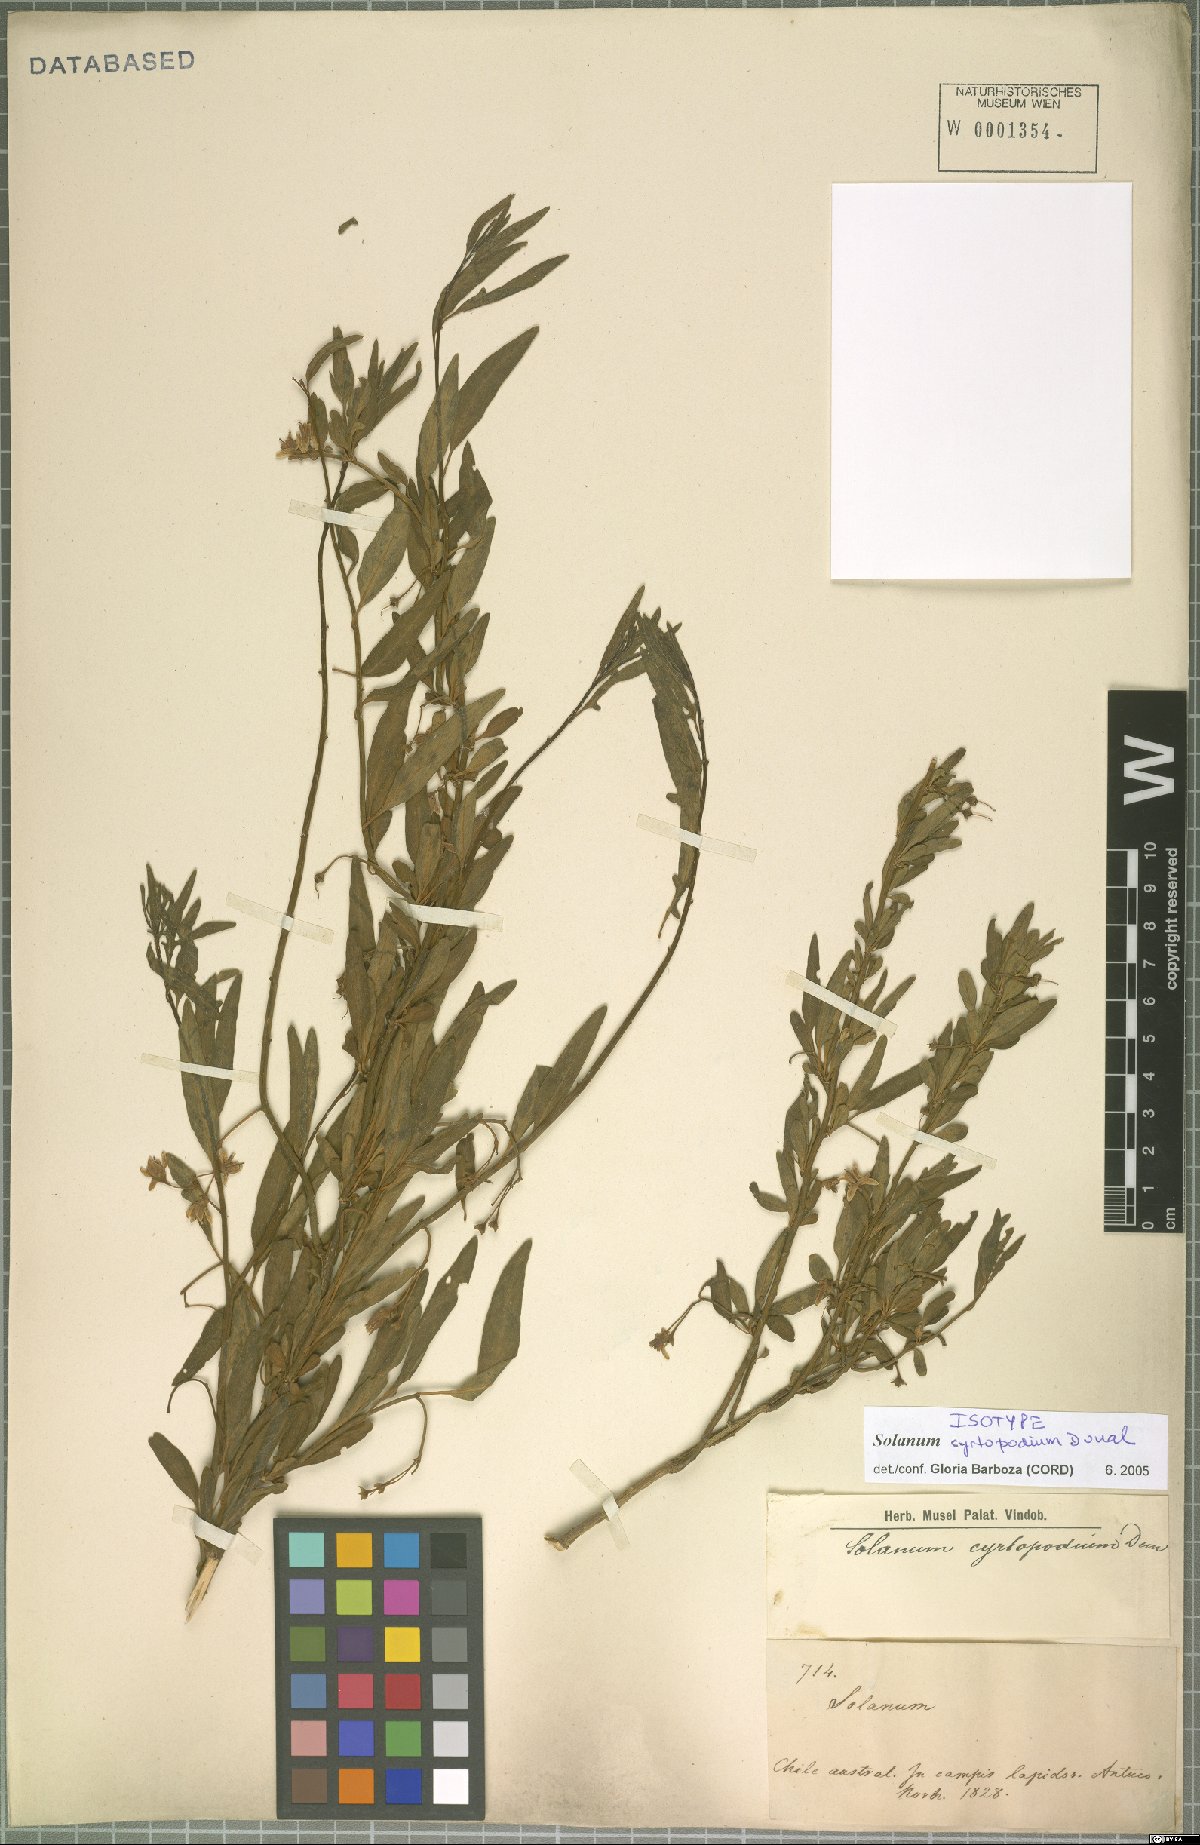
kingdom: Plantae
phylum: Tracheophyta
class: Magnoliopsida
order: Solanales
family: Solanaceae
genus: Solanum
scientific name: Solanum valdiviense
